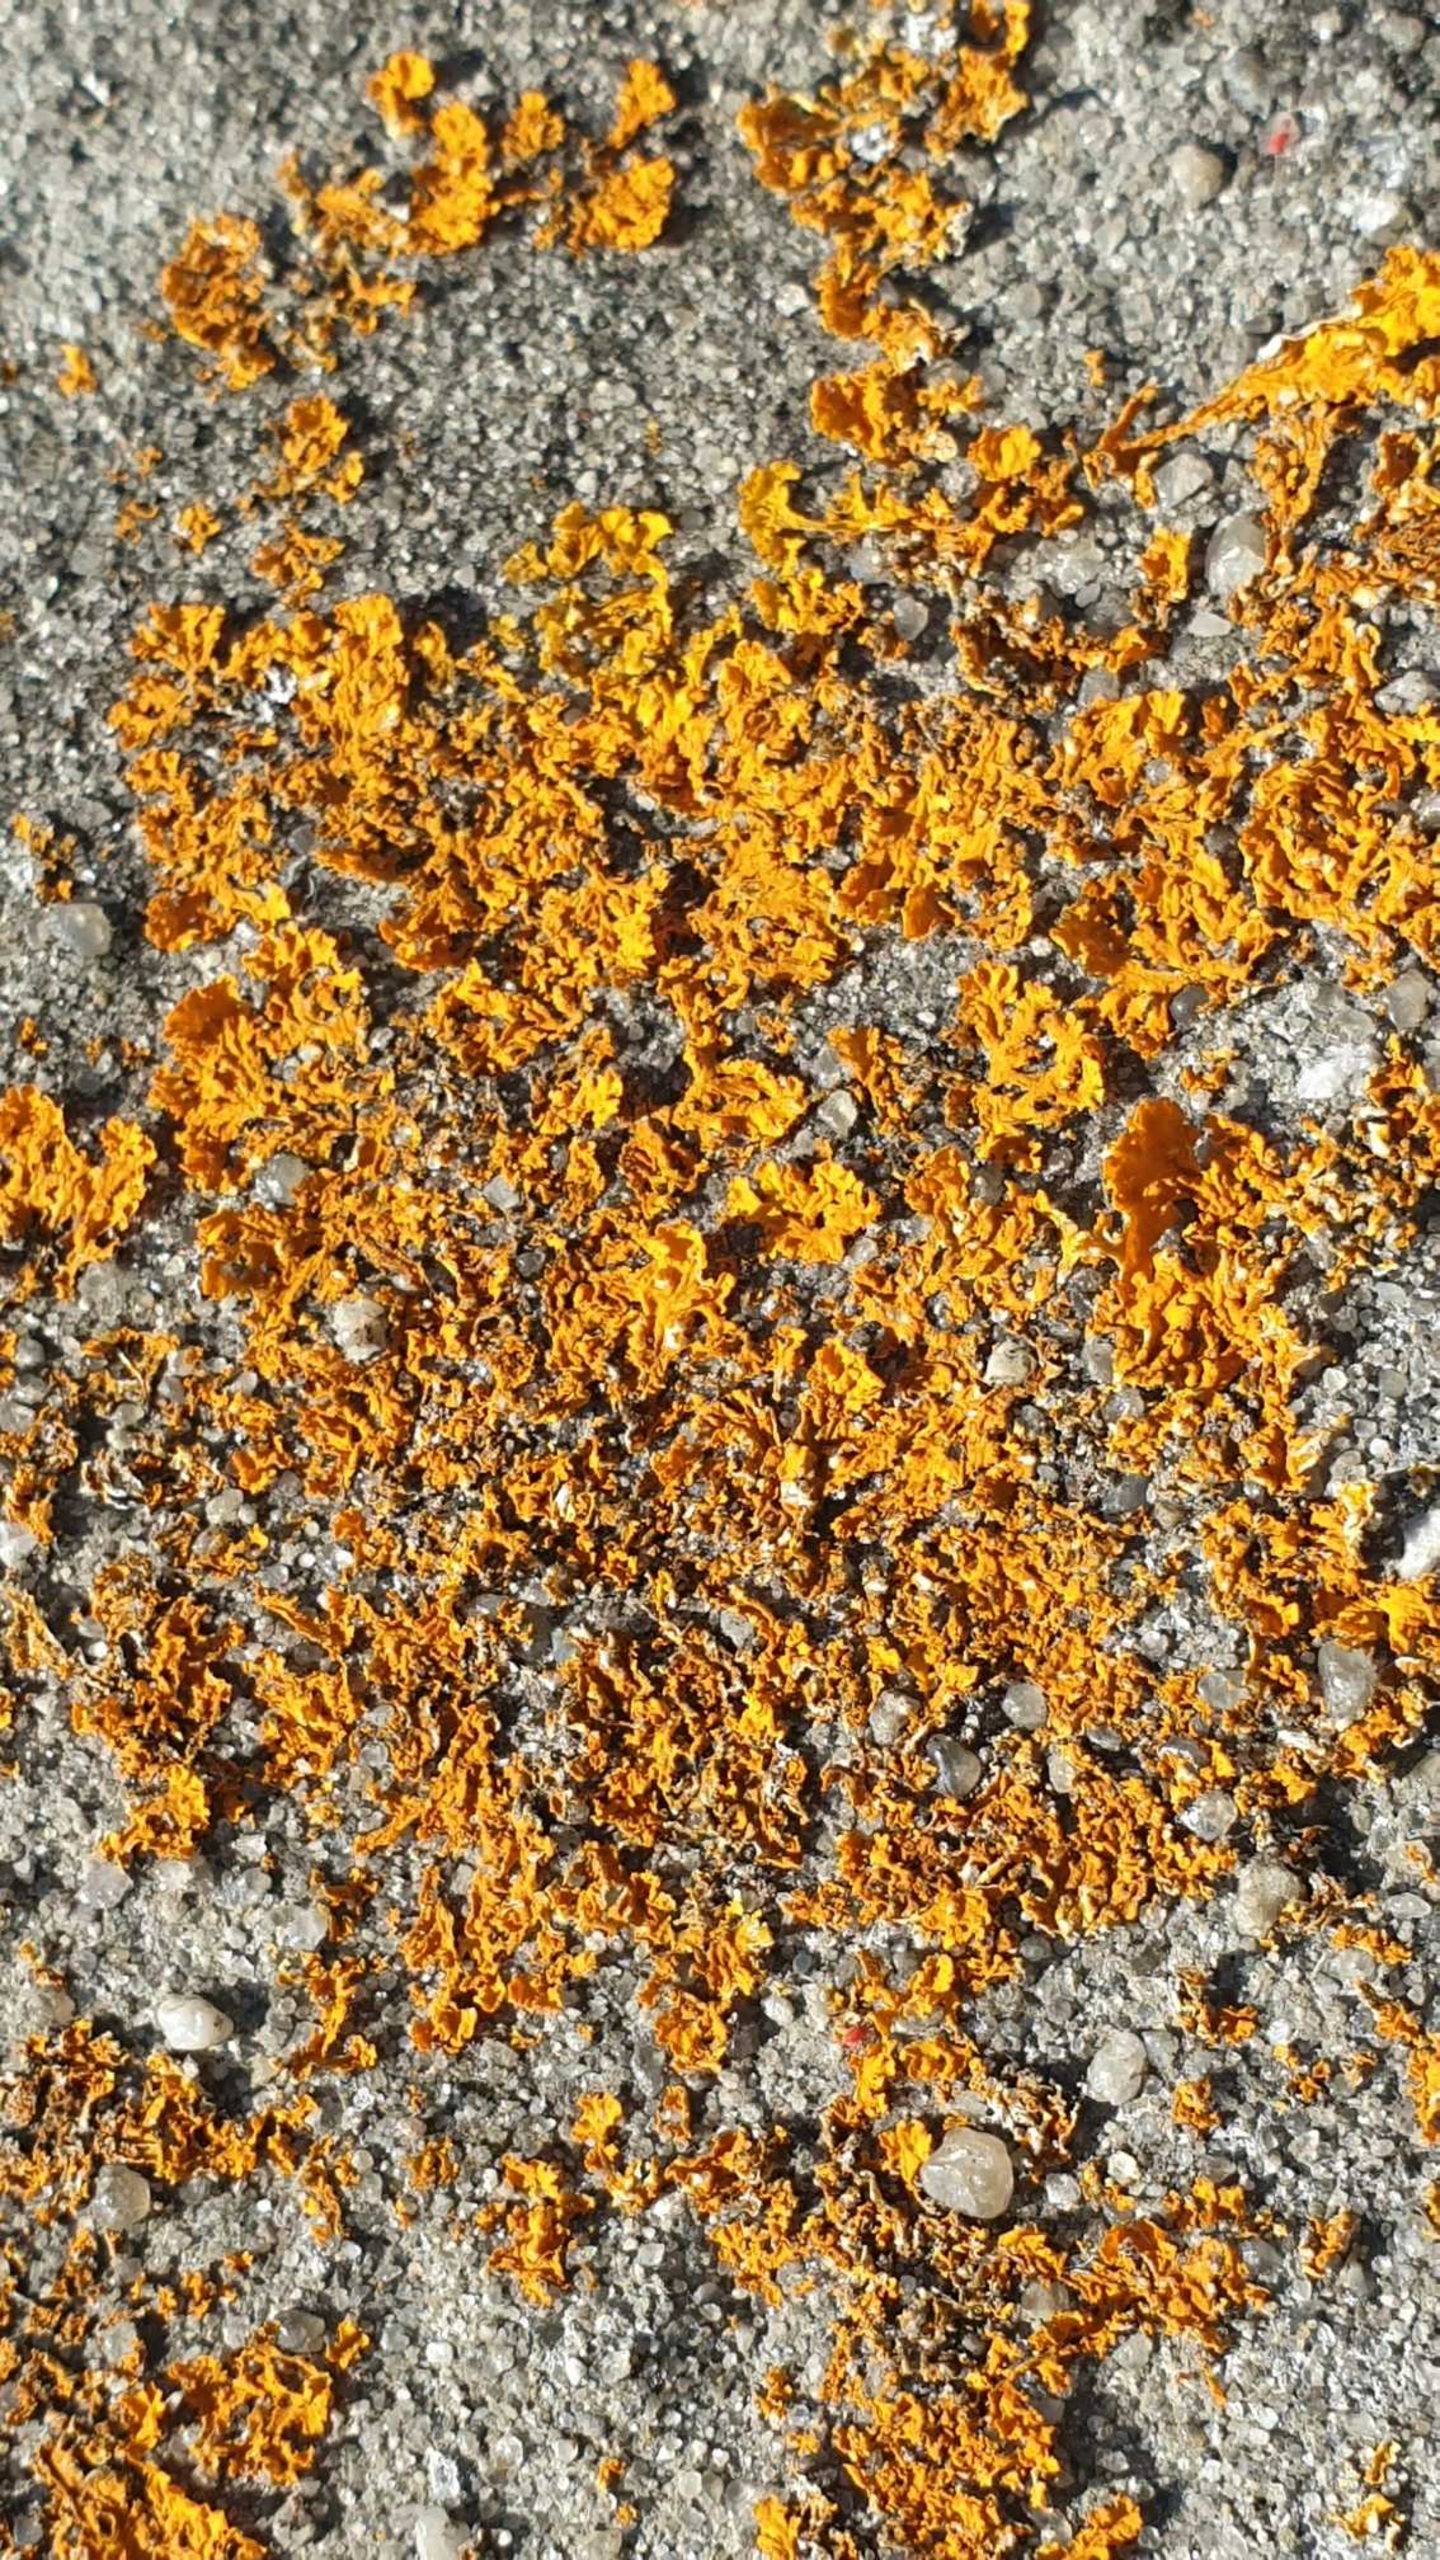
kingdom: Fungi
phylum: Ascomycota
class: Lecanoromycetes
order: Teloschistales
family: Teloschistaceae
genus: Xanthoria
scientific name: Xanthoria parietina
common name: Almindelig væggelav
